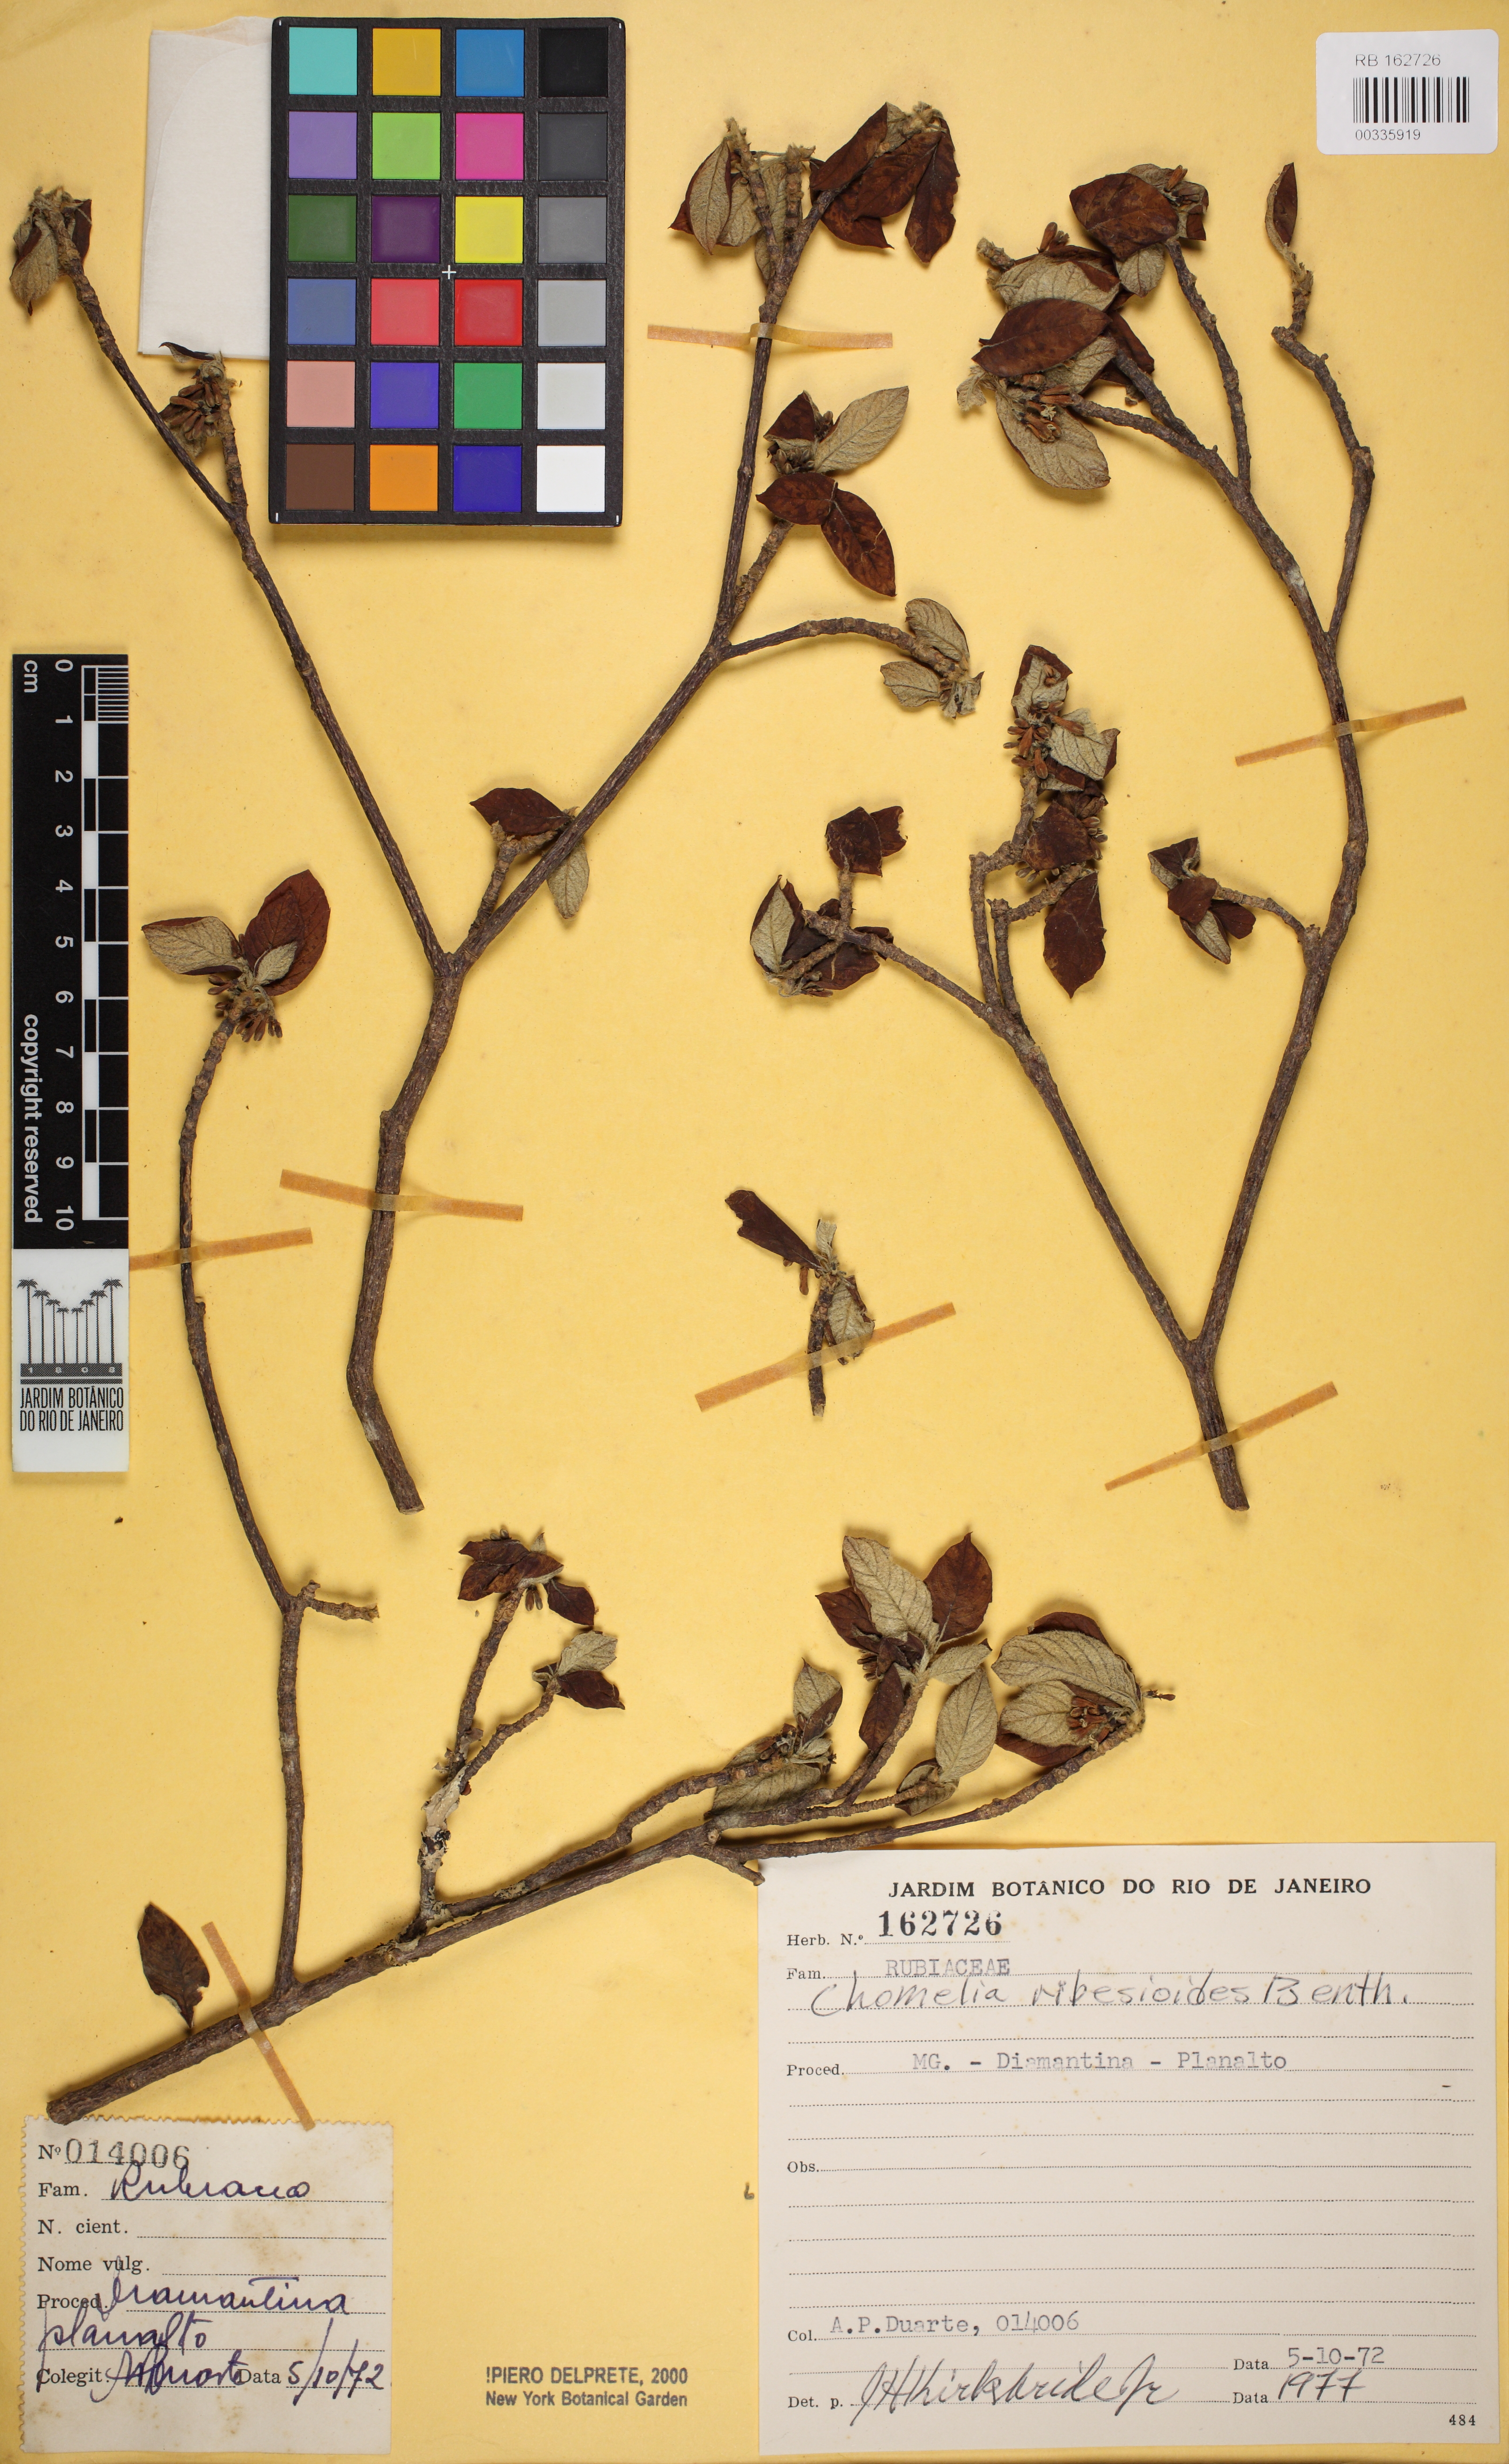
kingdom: Plantae
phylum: Tracheophyta
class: Magnoliopsida
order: Gentianales
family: Rubiaceae
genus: Chomelia
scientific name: Chomelia ribesioides
